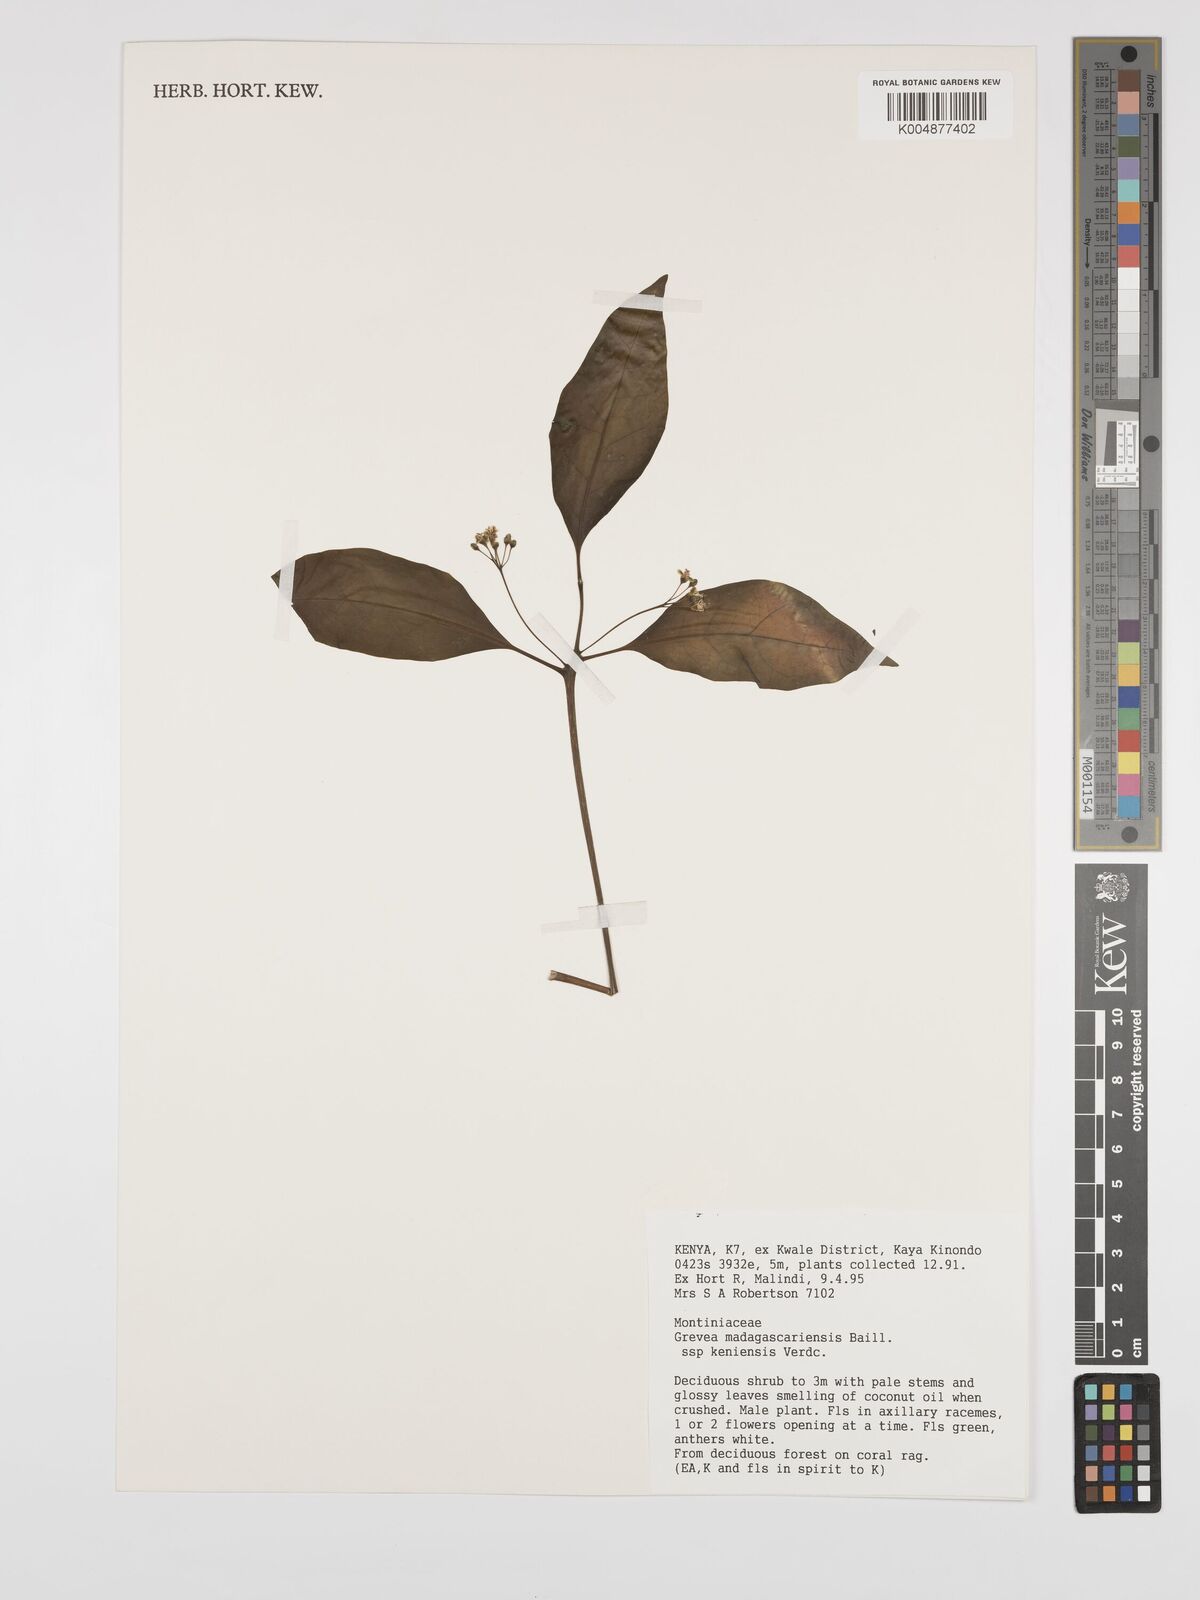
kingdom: Plantae
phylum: Tracheophyta
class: Magnoliopsida
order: Solanales
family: Montiniaceae
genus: Grevea
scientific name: Grevea eggelingii
